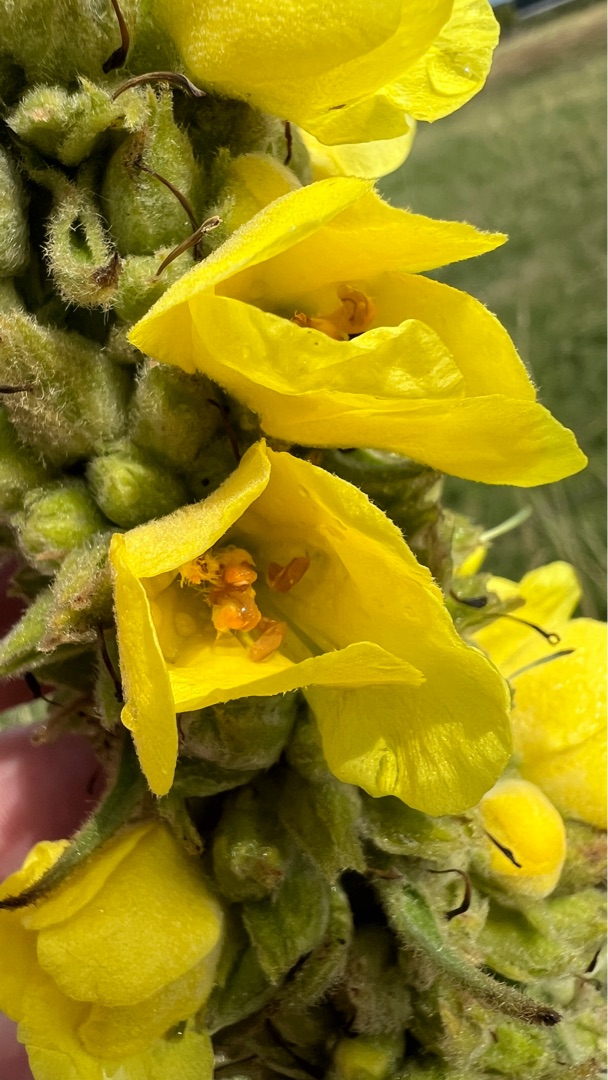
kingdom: Plantae
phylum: Tracheophyta
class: Magnoliopsida
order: Lamiales
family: Scrophulariaceae
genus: Verbascum
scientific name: Verbascum densiflorum
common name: Uldbladet kongelys
